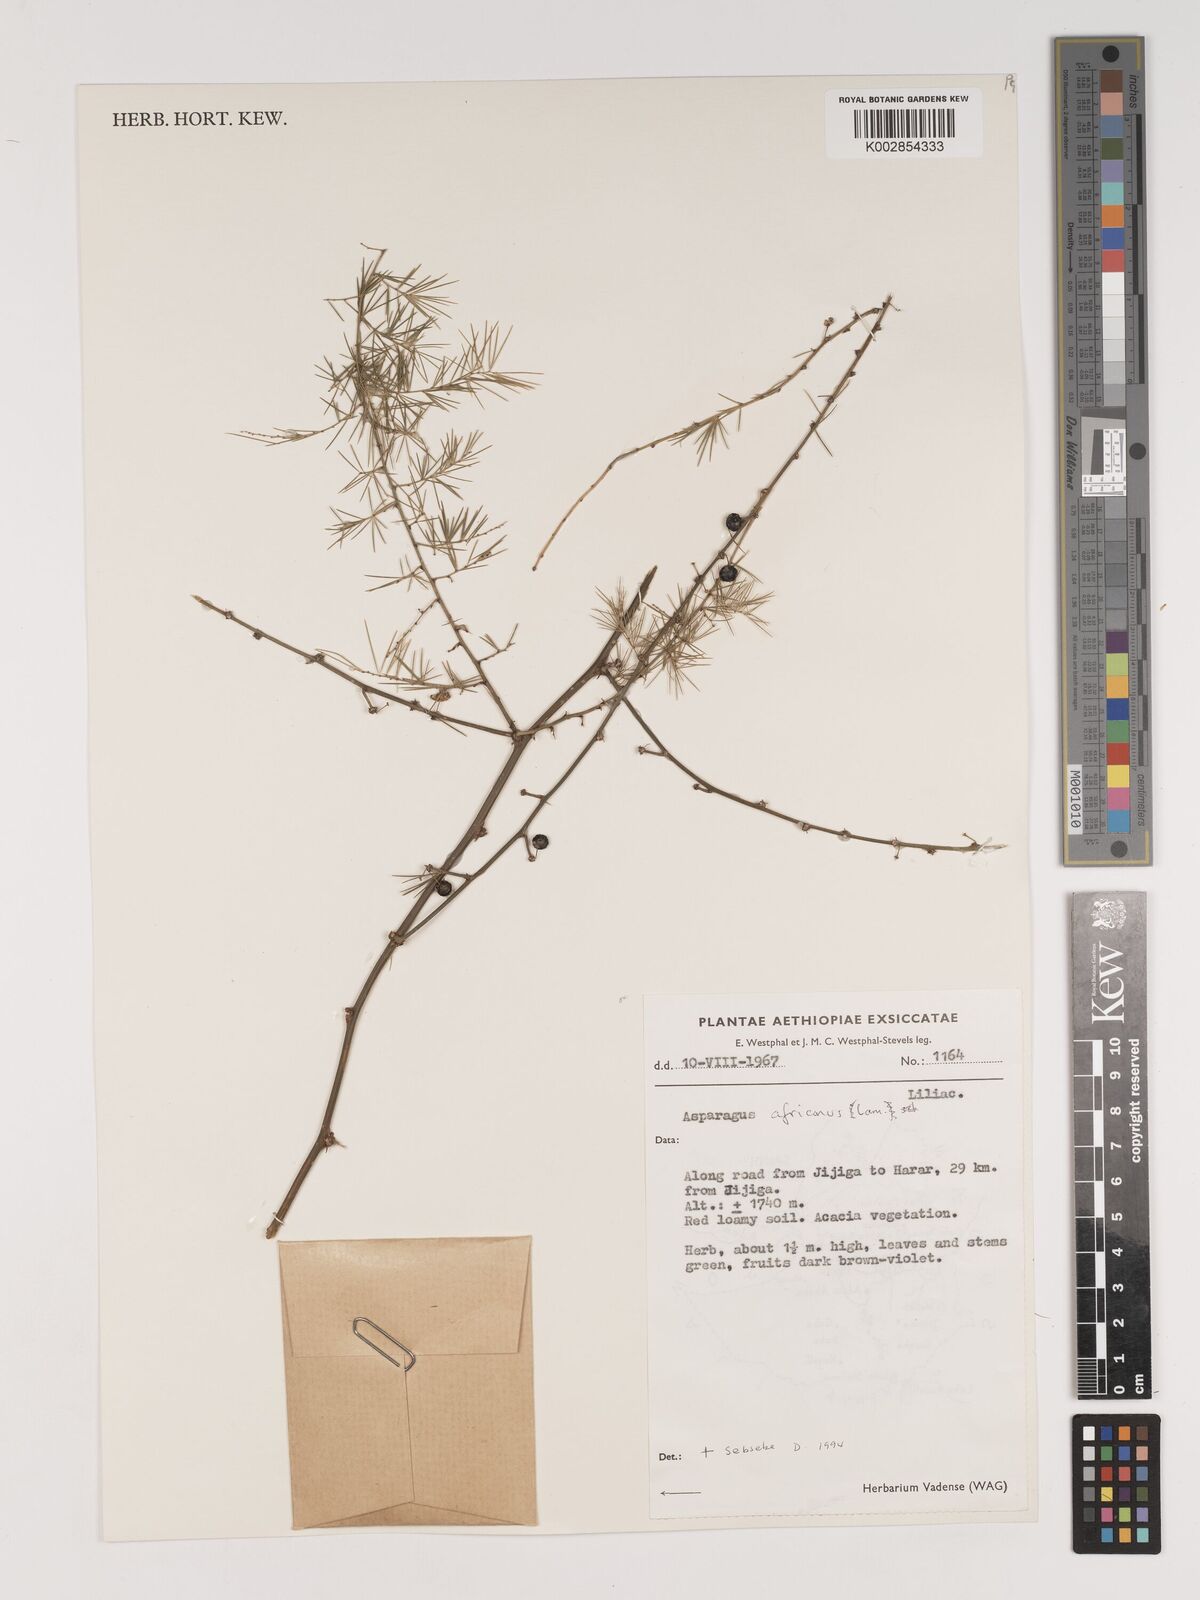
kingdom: Plantae
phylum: Tracheophyta
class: Liliopsida
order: Asparagales
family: Asparagaceae
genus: Asparagus
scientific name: Asparagus africanus
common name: Asparagus-fern
